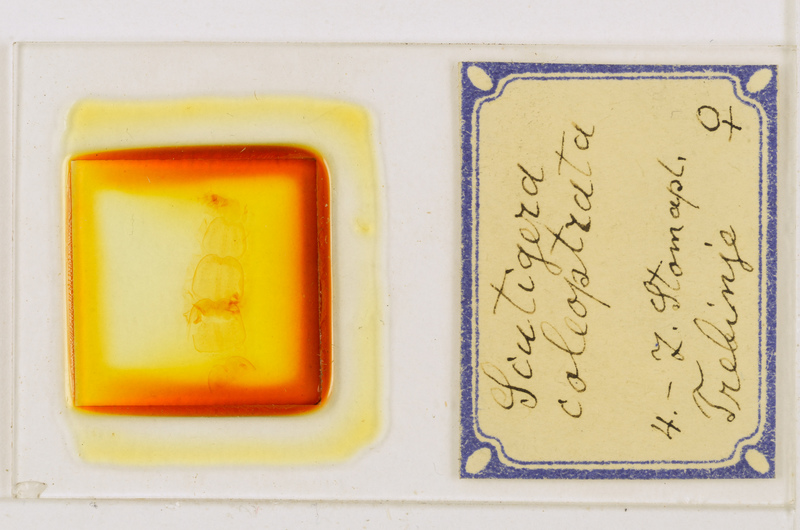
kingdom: Animalia
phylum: Arthropoda
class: Chilopoda
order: Scutigeromorpha
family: Scutigeridae
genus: Scutigera
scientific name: Scutigera coleoptrata
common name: House centipede
